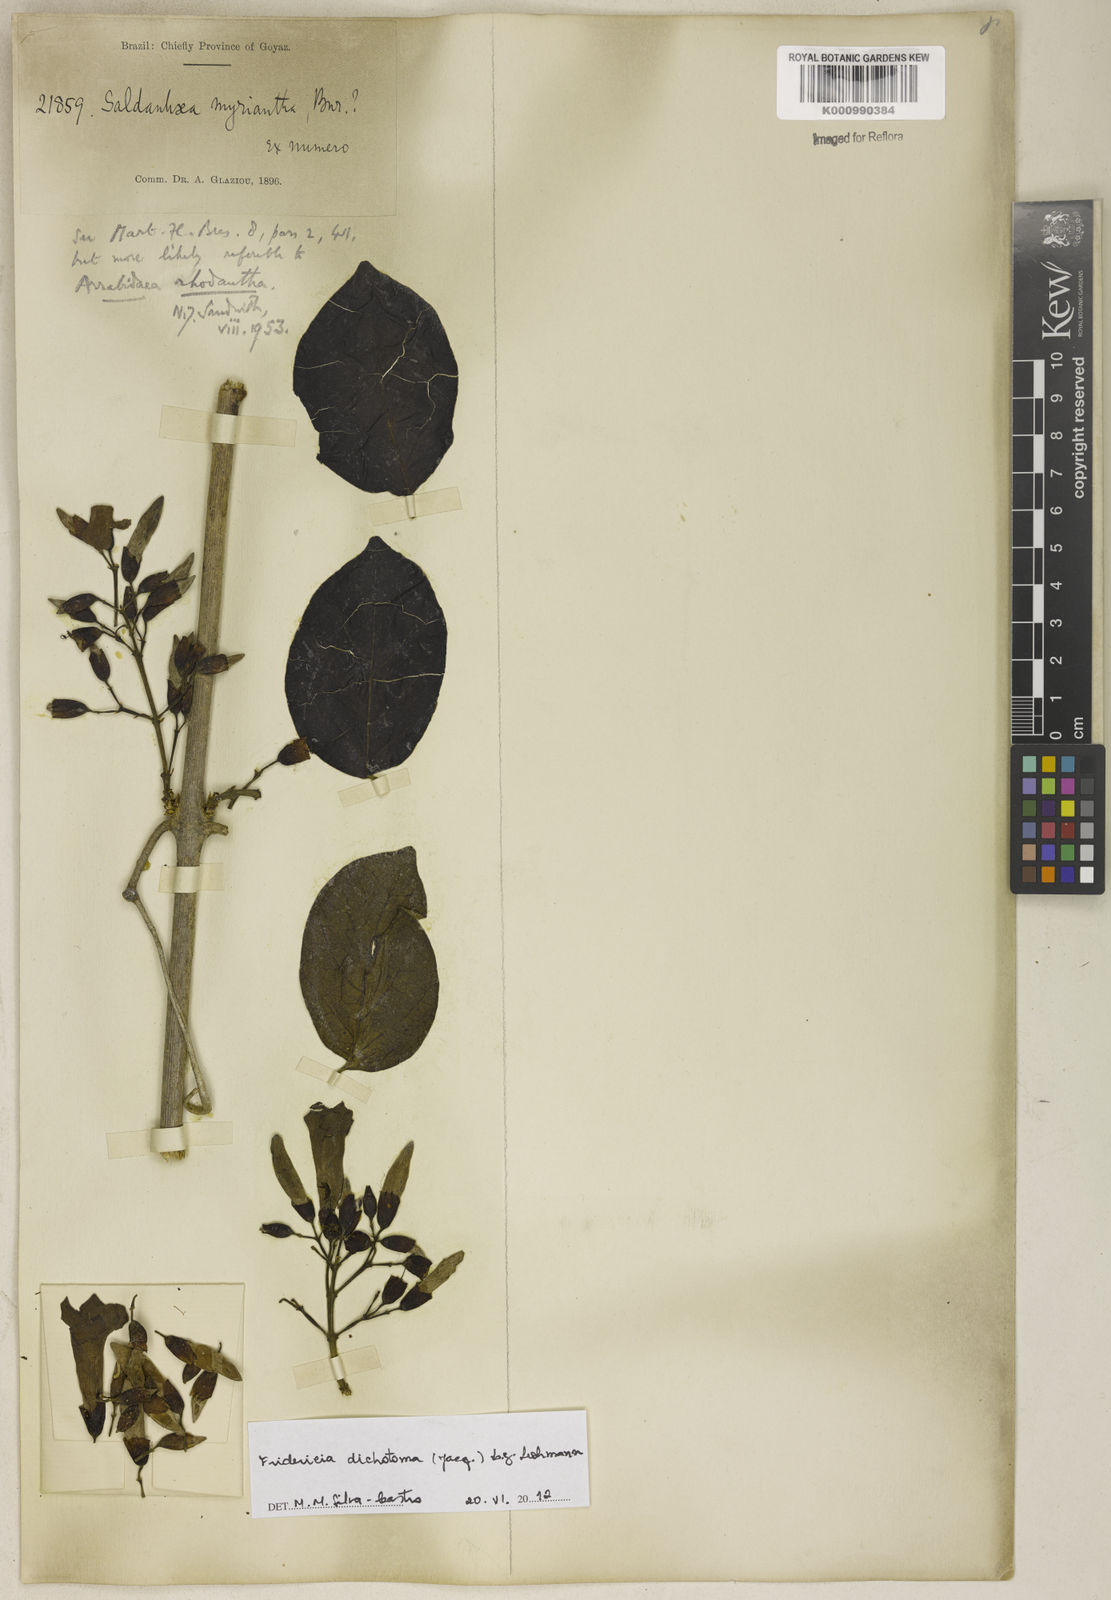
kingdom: Plantae
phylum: Tracheophyta
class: Magnoliopsida
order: Lamiales
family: Bignoniaceae
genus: Tanaecium
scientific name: Tanaecium dichotomum
